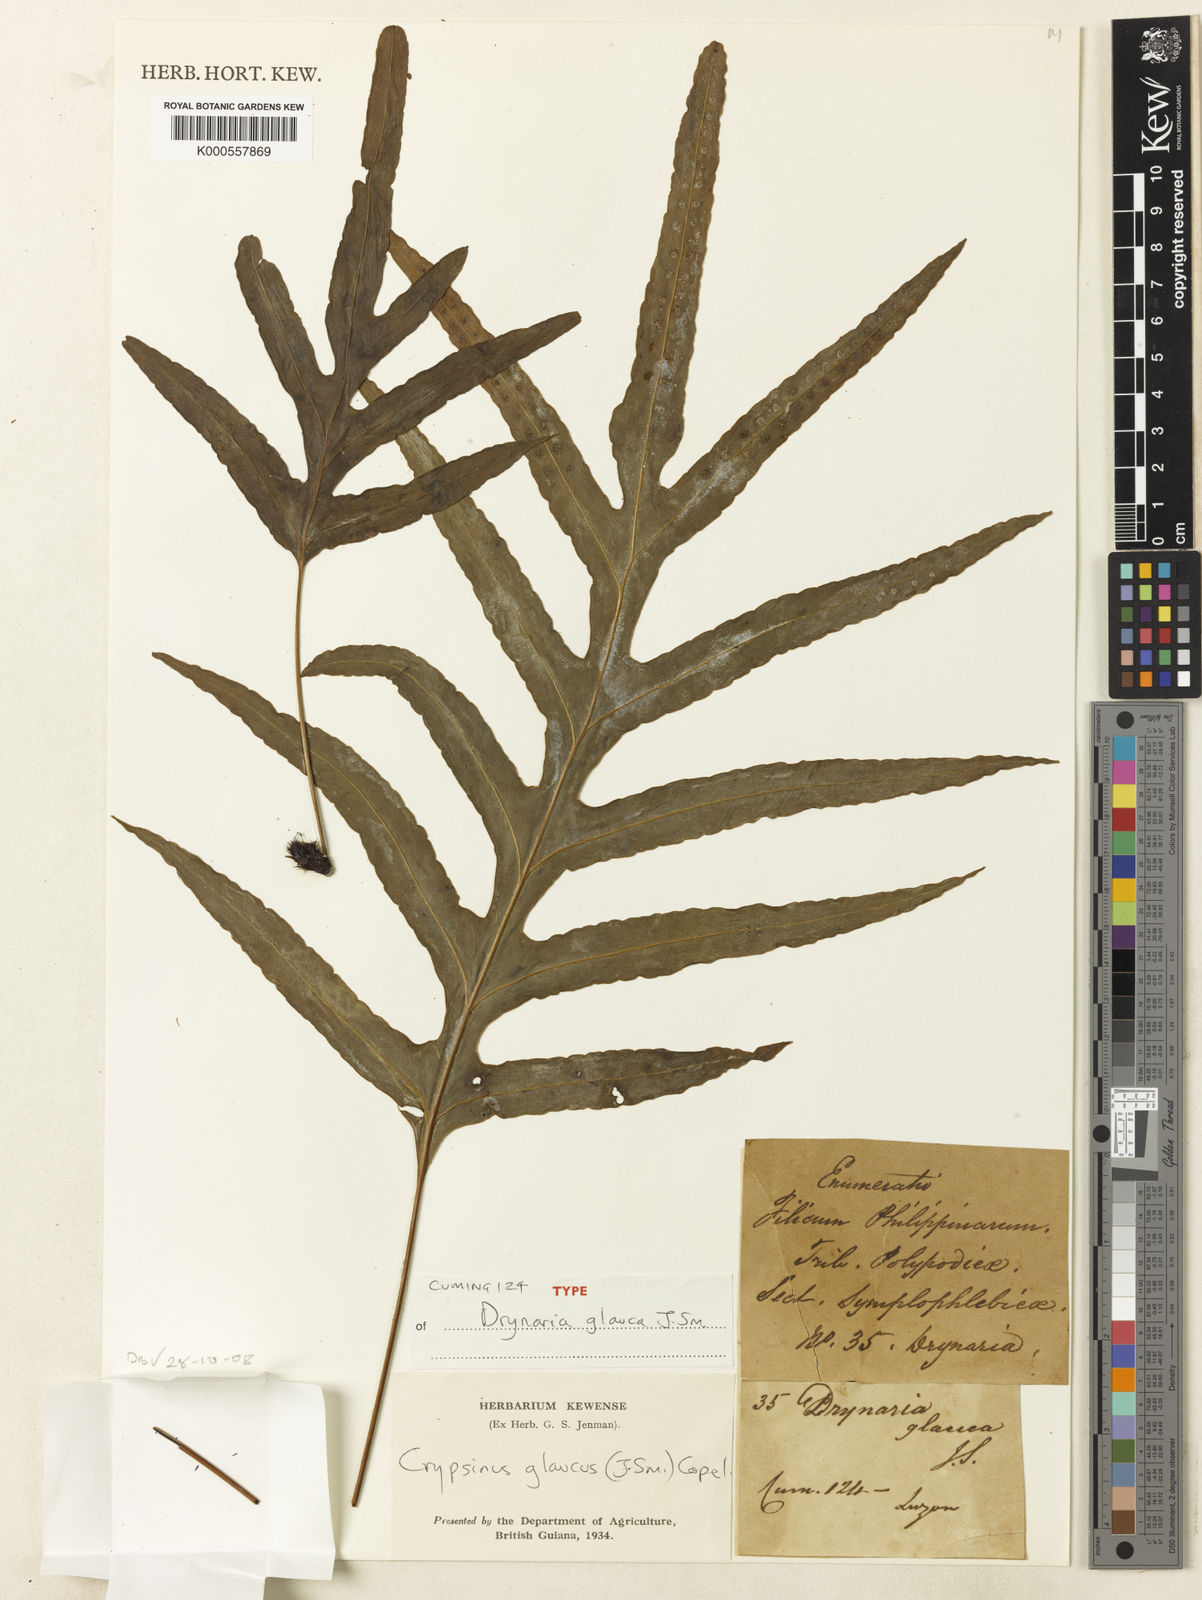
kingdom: Plantae
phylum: Tracheophyta
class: Polypodiopsida
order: Polypodiales
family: Polypodiaceae
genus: Selliguea
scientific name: Selliguea glauca
